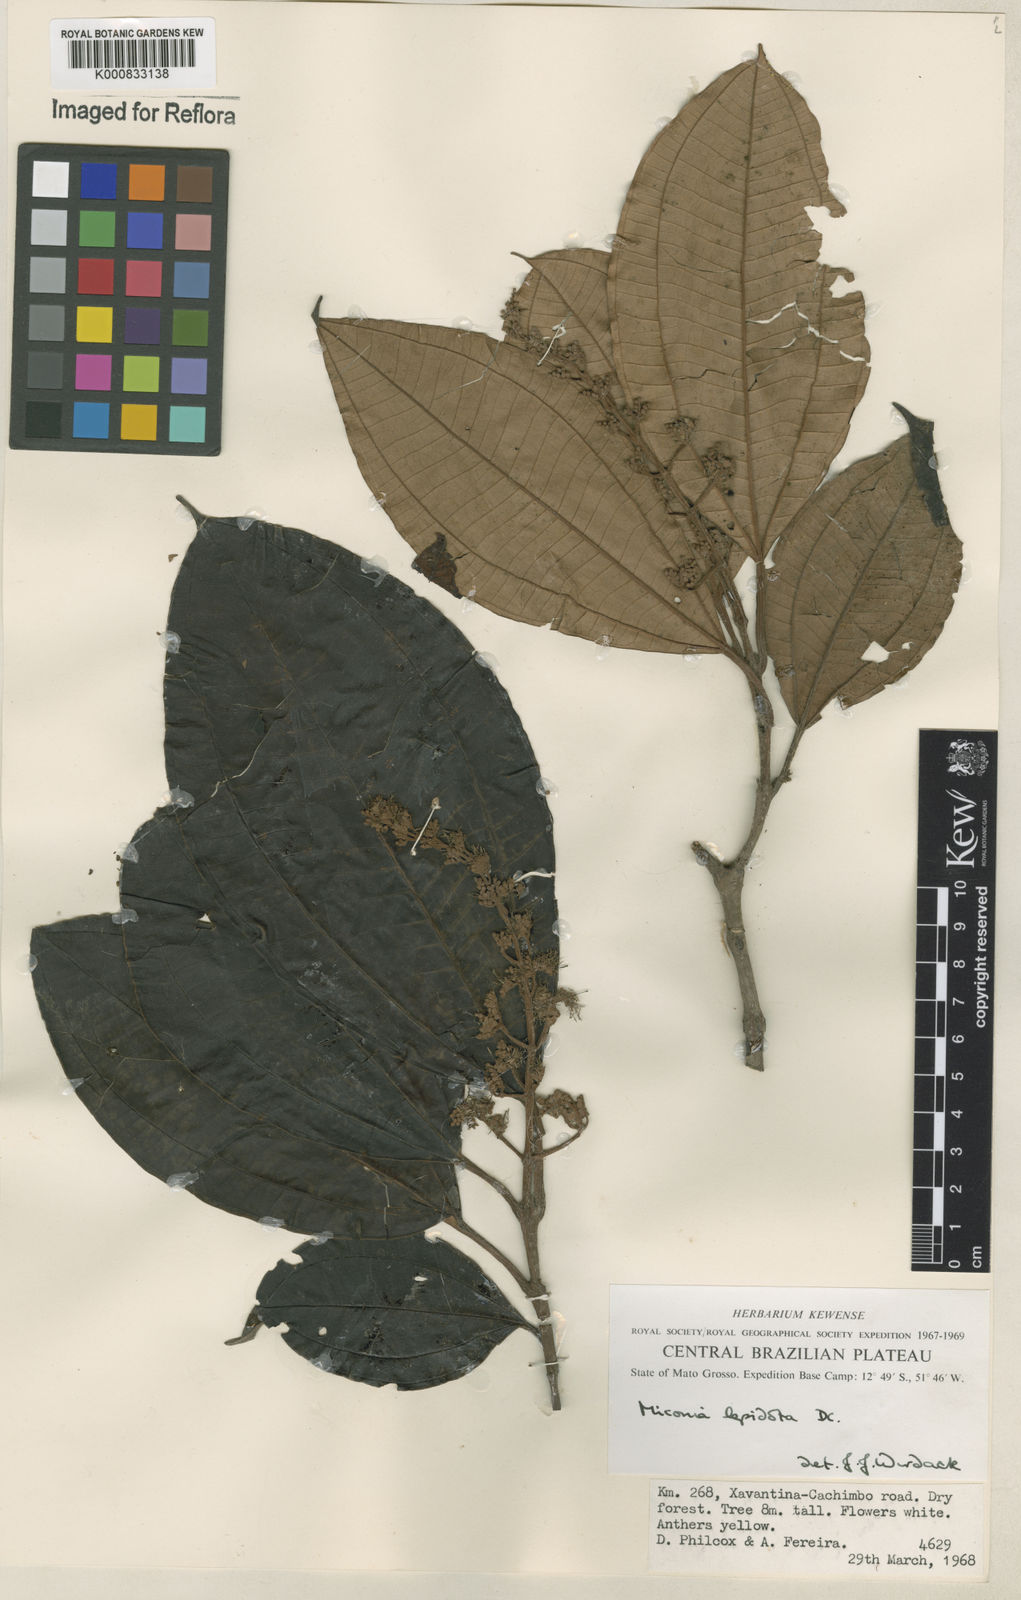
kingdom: Plantae
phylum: Tracheophyta
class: Magnoliopsida
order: Myrtales
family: Melastomataceae
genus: Miconia
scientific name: Miconia lepidota
